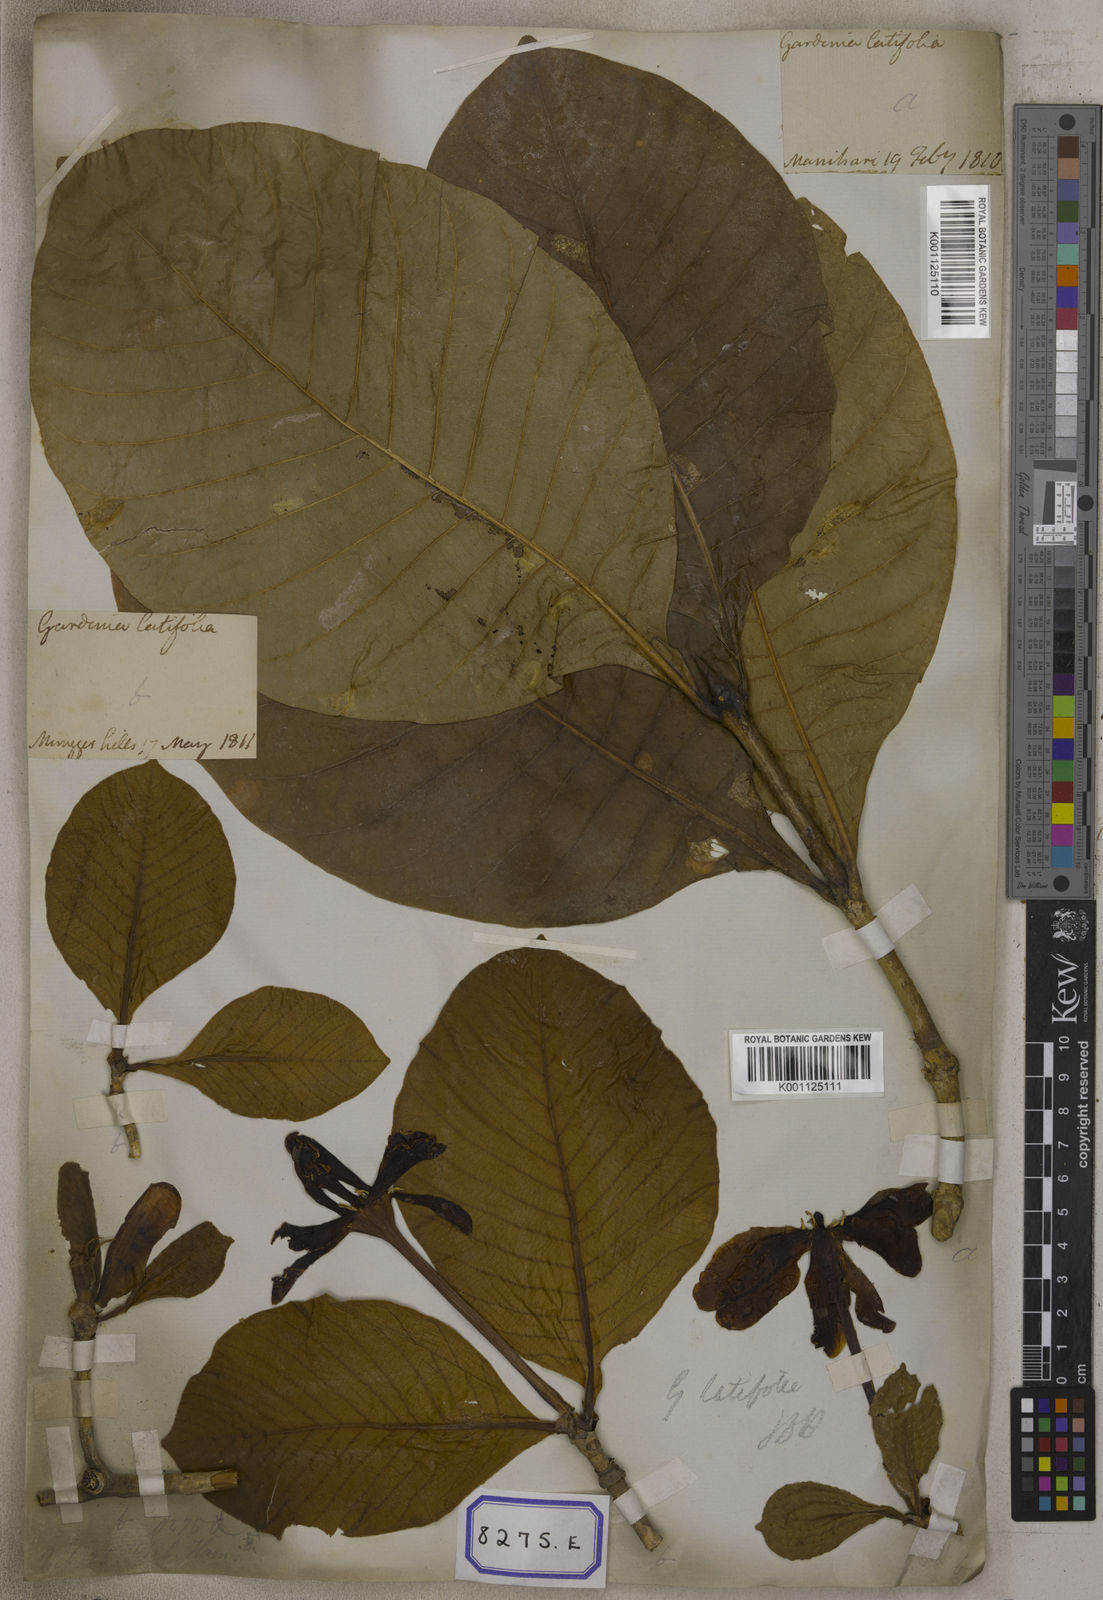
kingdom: Plantae
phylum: Tracheophyta
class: Magnoliopsida
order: Gentianales
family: Rubiaceae
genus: Gardenia
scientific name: Gardenia
